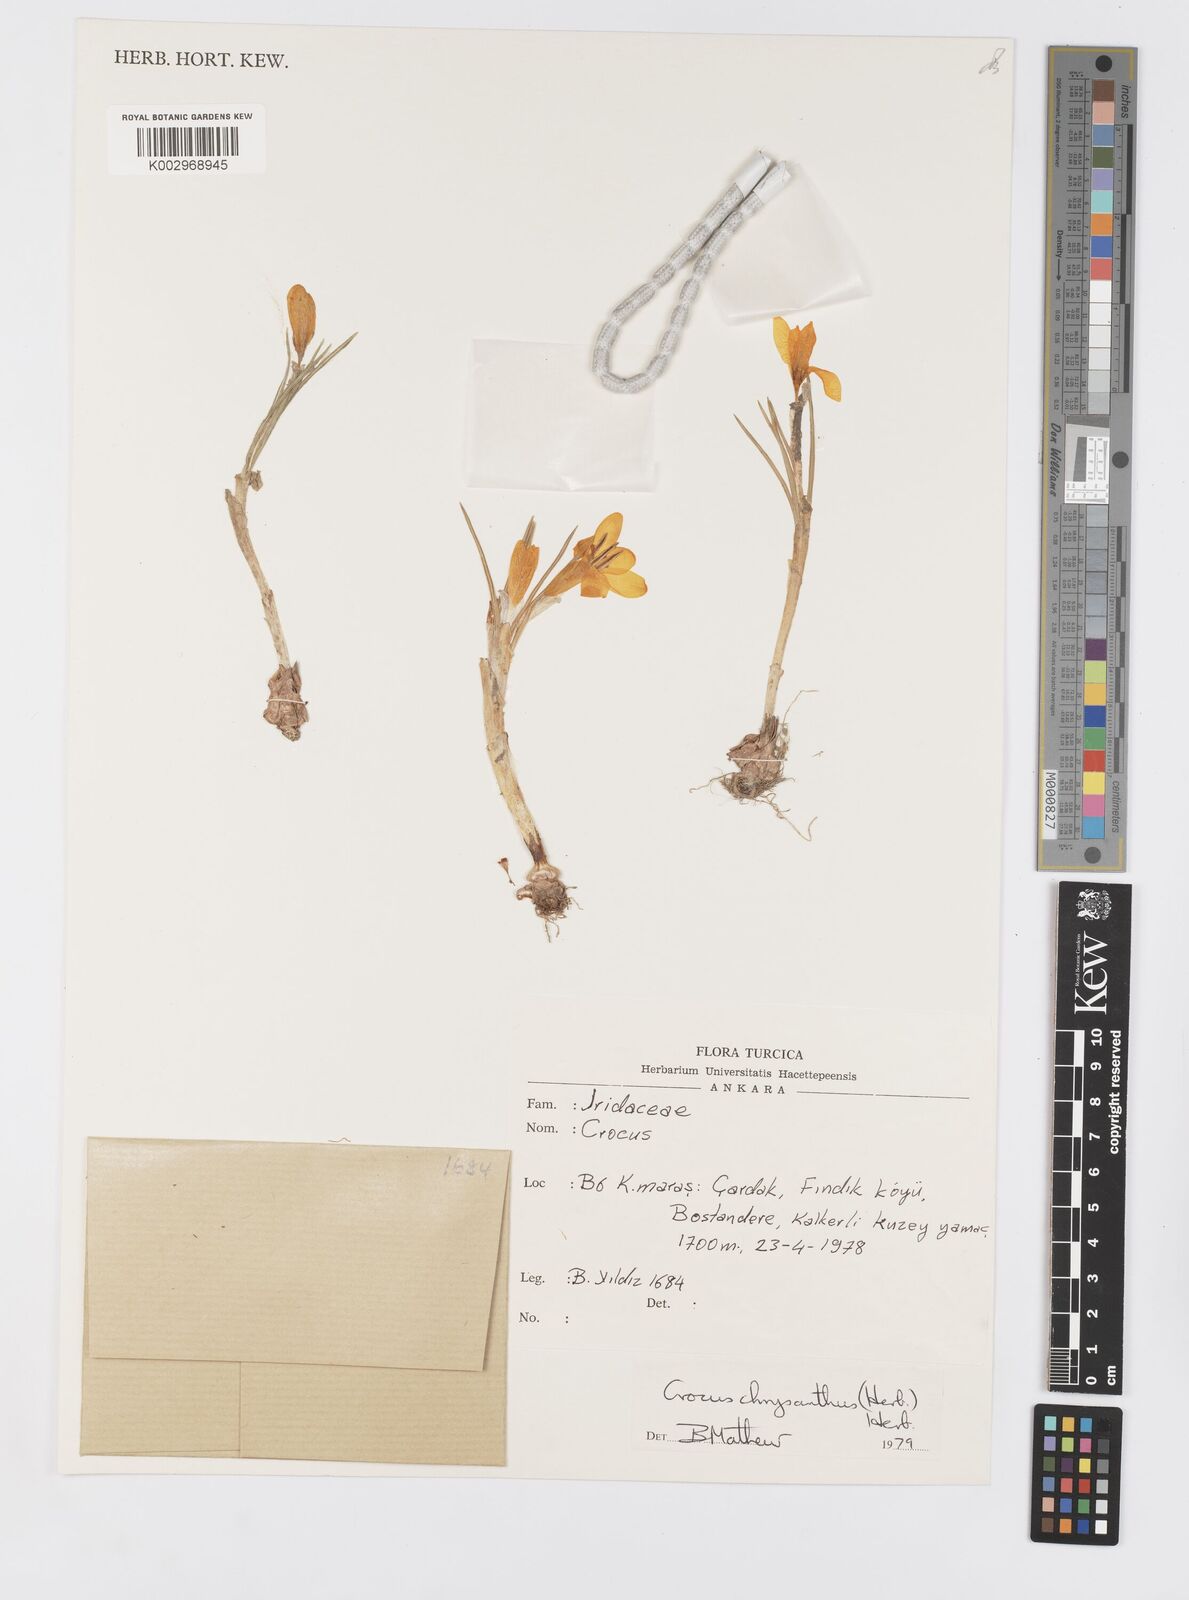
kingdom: Plantae
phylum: Tracheophyta
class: Liliopsida
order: Asparagales
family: Iridaceae
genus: Crocus
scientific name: Crocus chrysanthus
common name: Golden crocus
